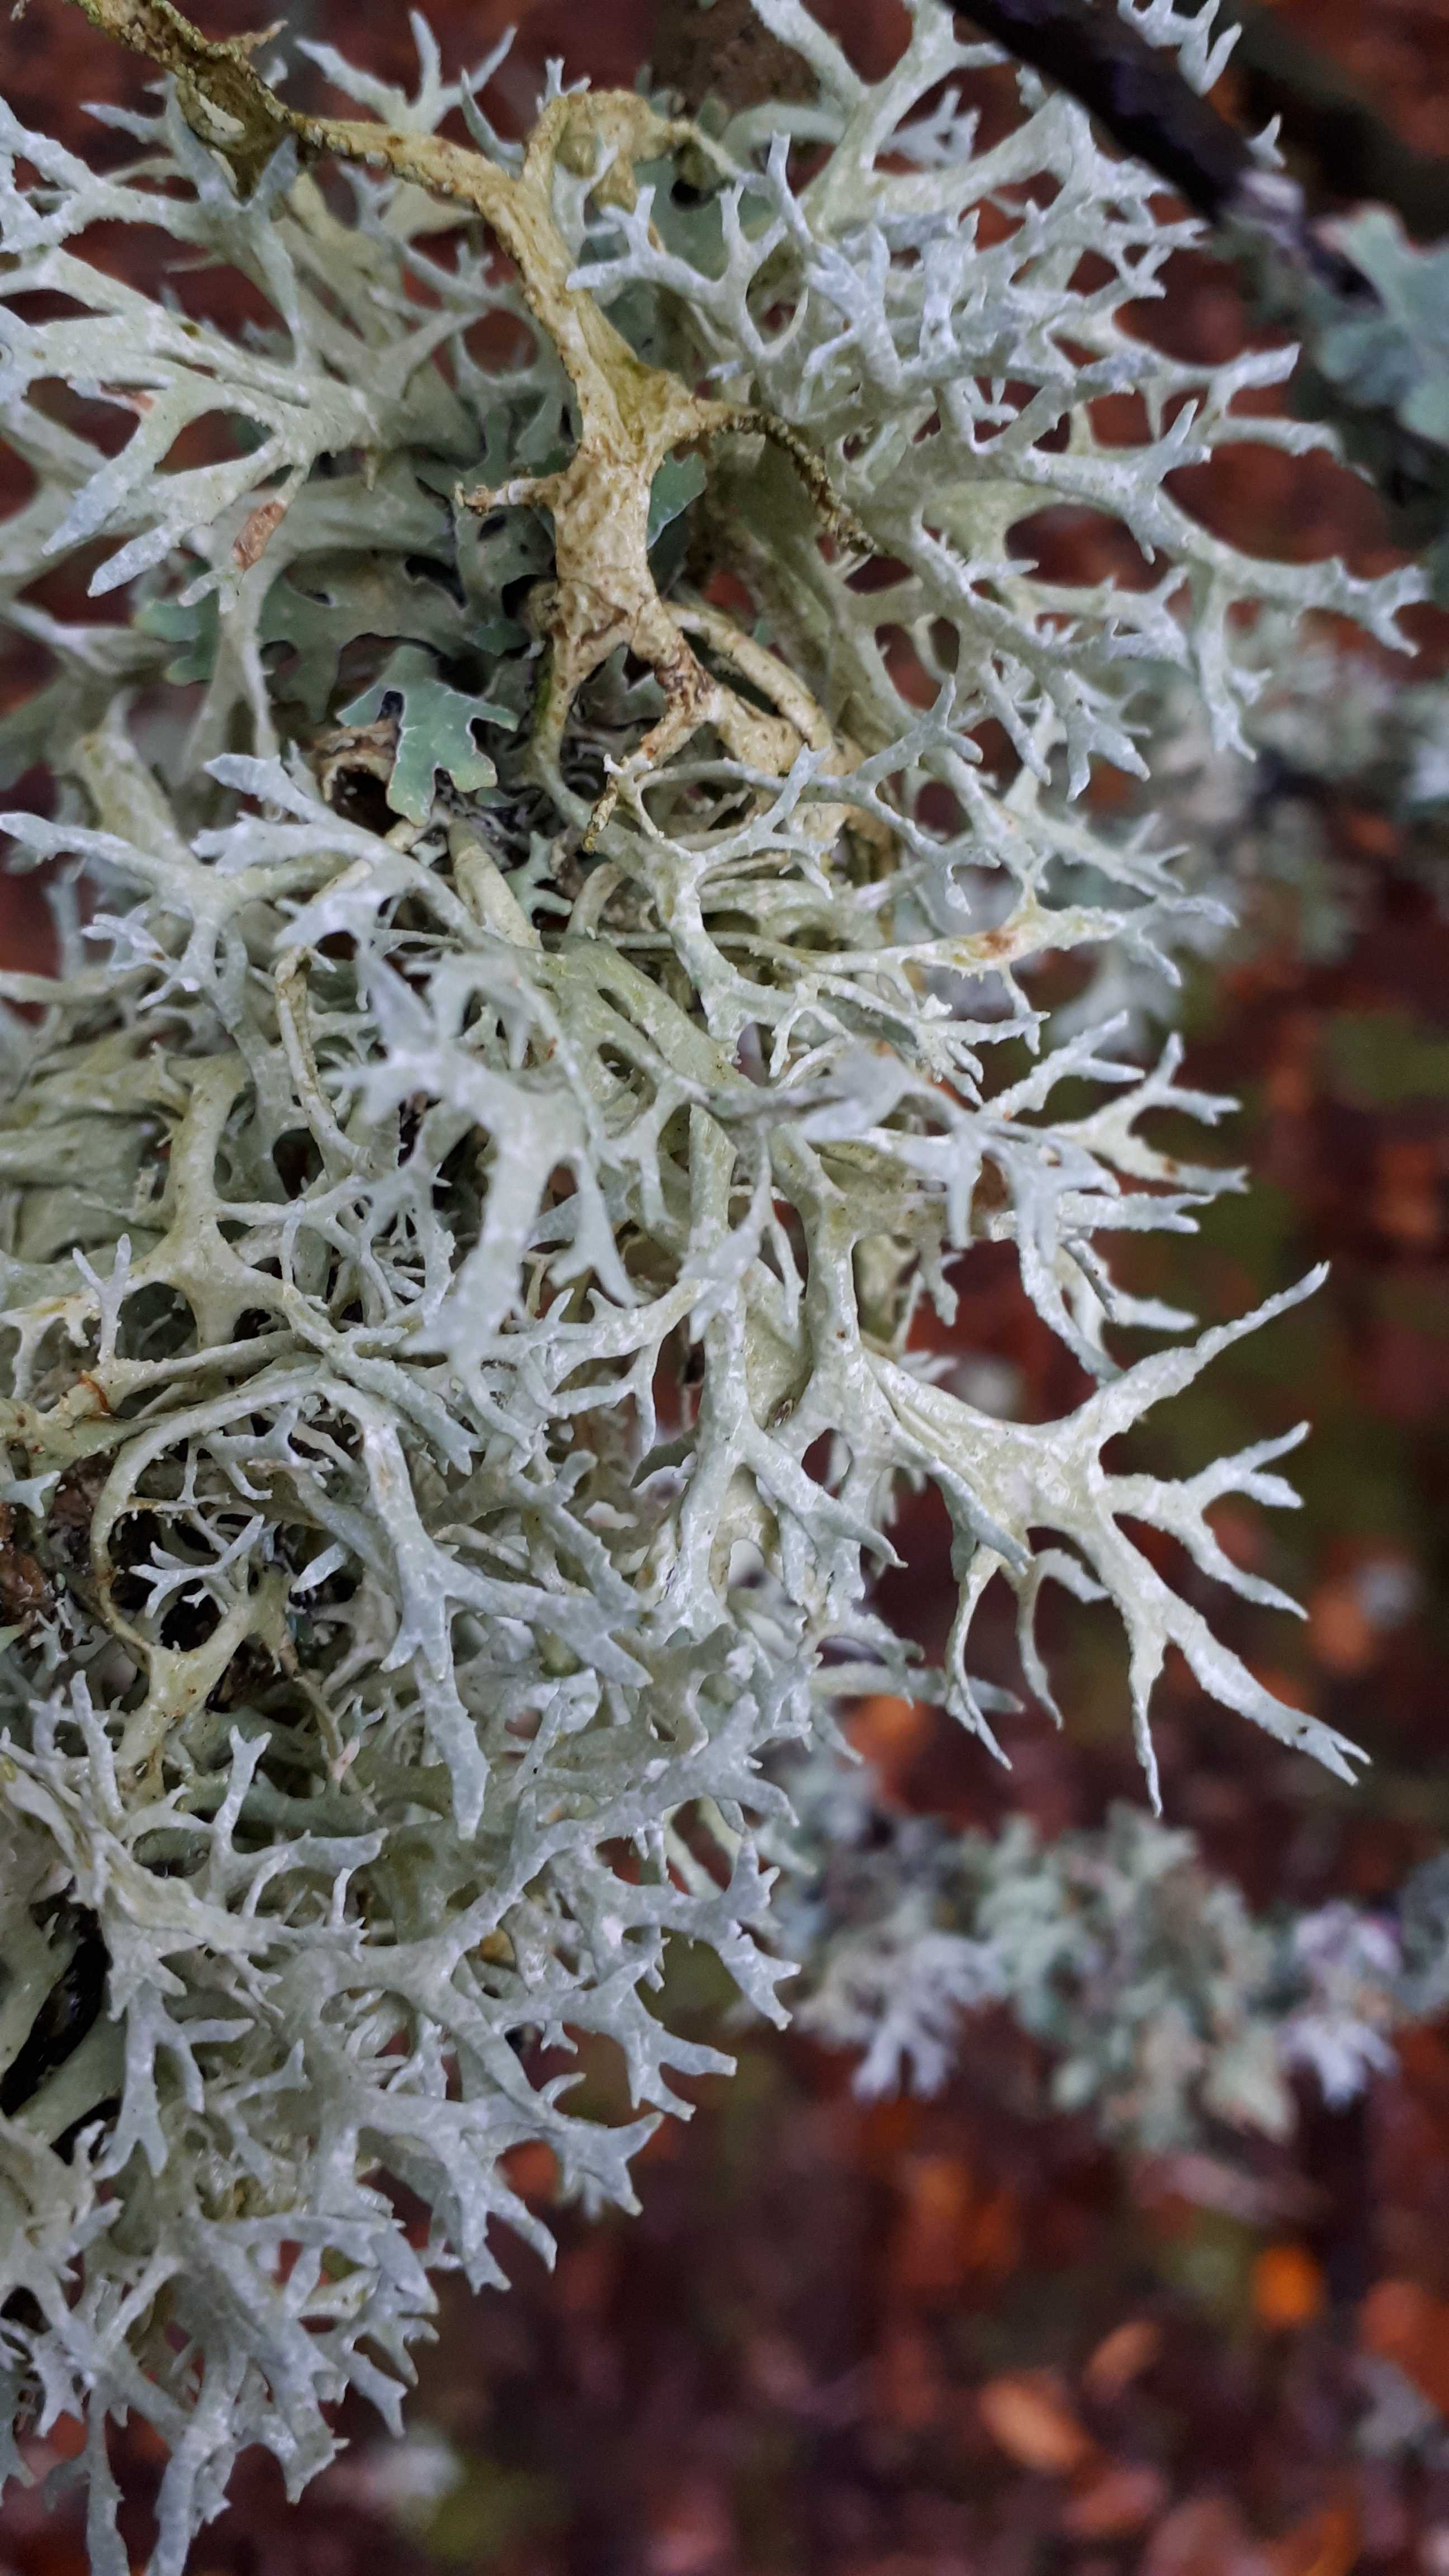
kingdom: Fungi
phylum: Ascomycota
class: Lecanoromycetes
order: Lecanorales
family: Parmeliaceae
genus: Evernia
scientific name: Evernia prunastri
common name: almindelig slåenlav
